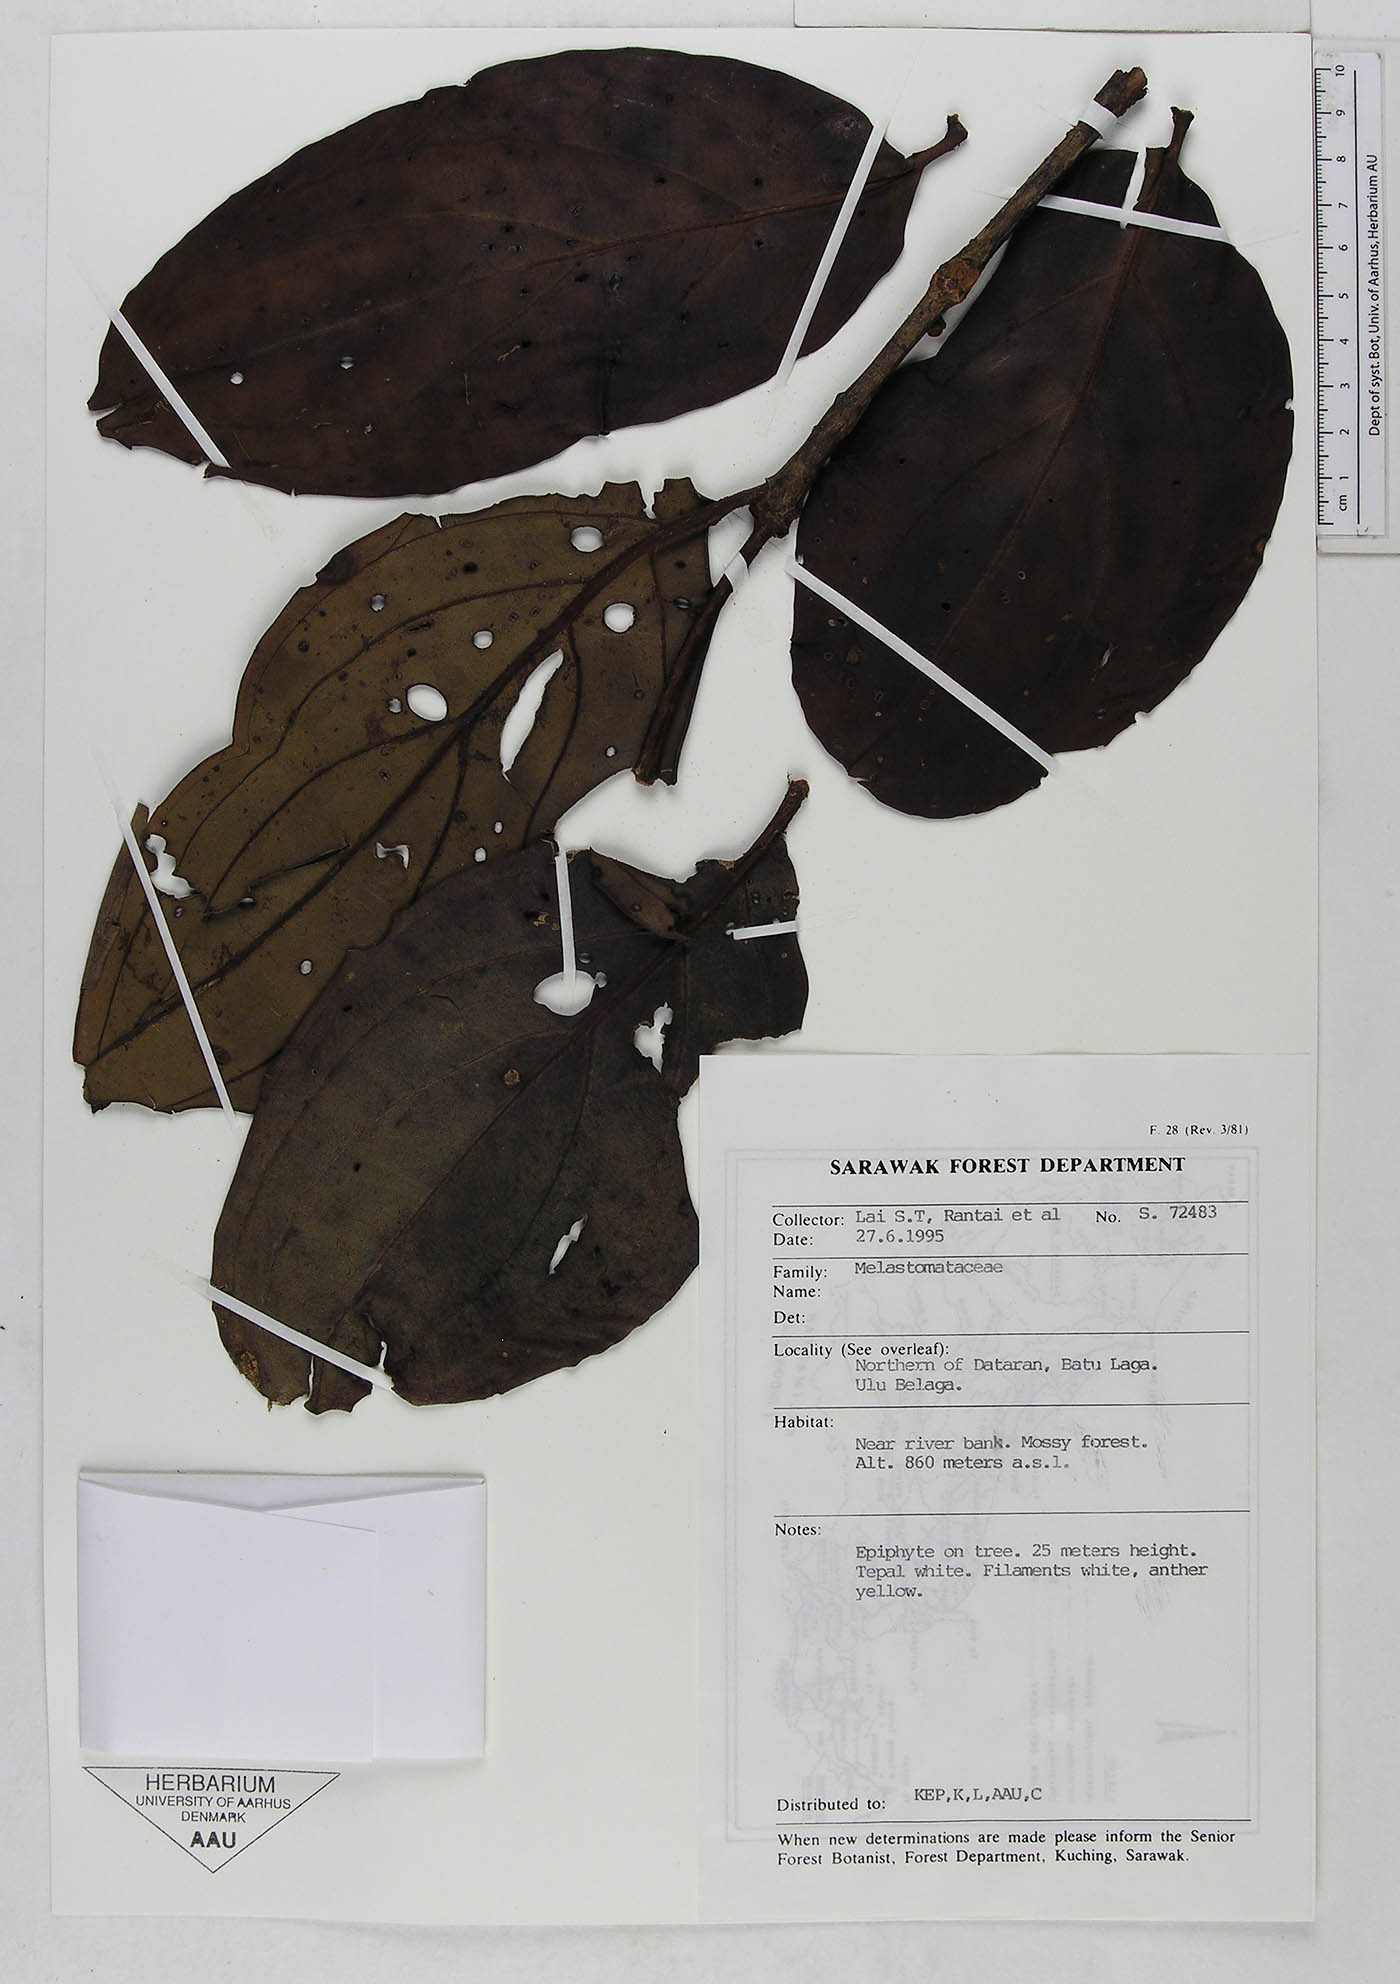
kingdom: Plantae
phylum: Tracheophyta
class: Magnoliopsida
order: Myrtales
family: Melastomataceae
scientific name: Melastomataceae
